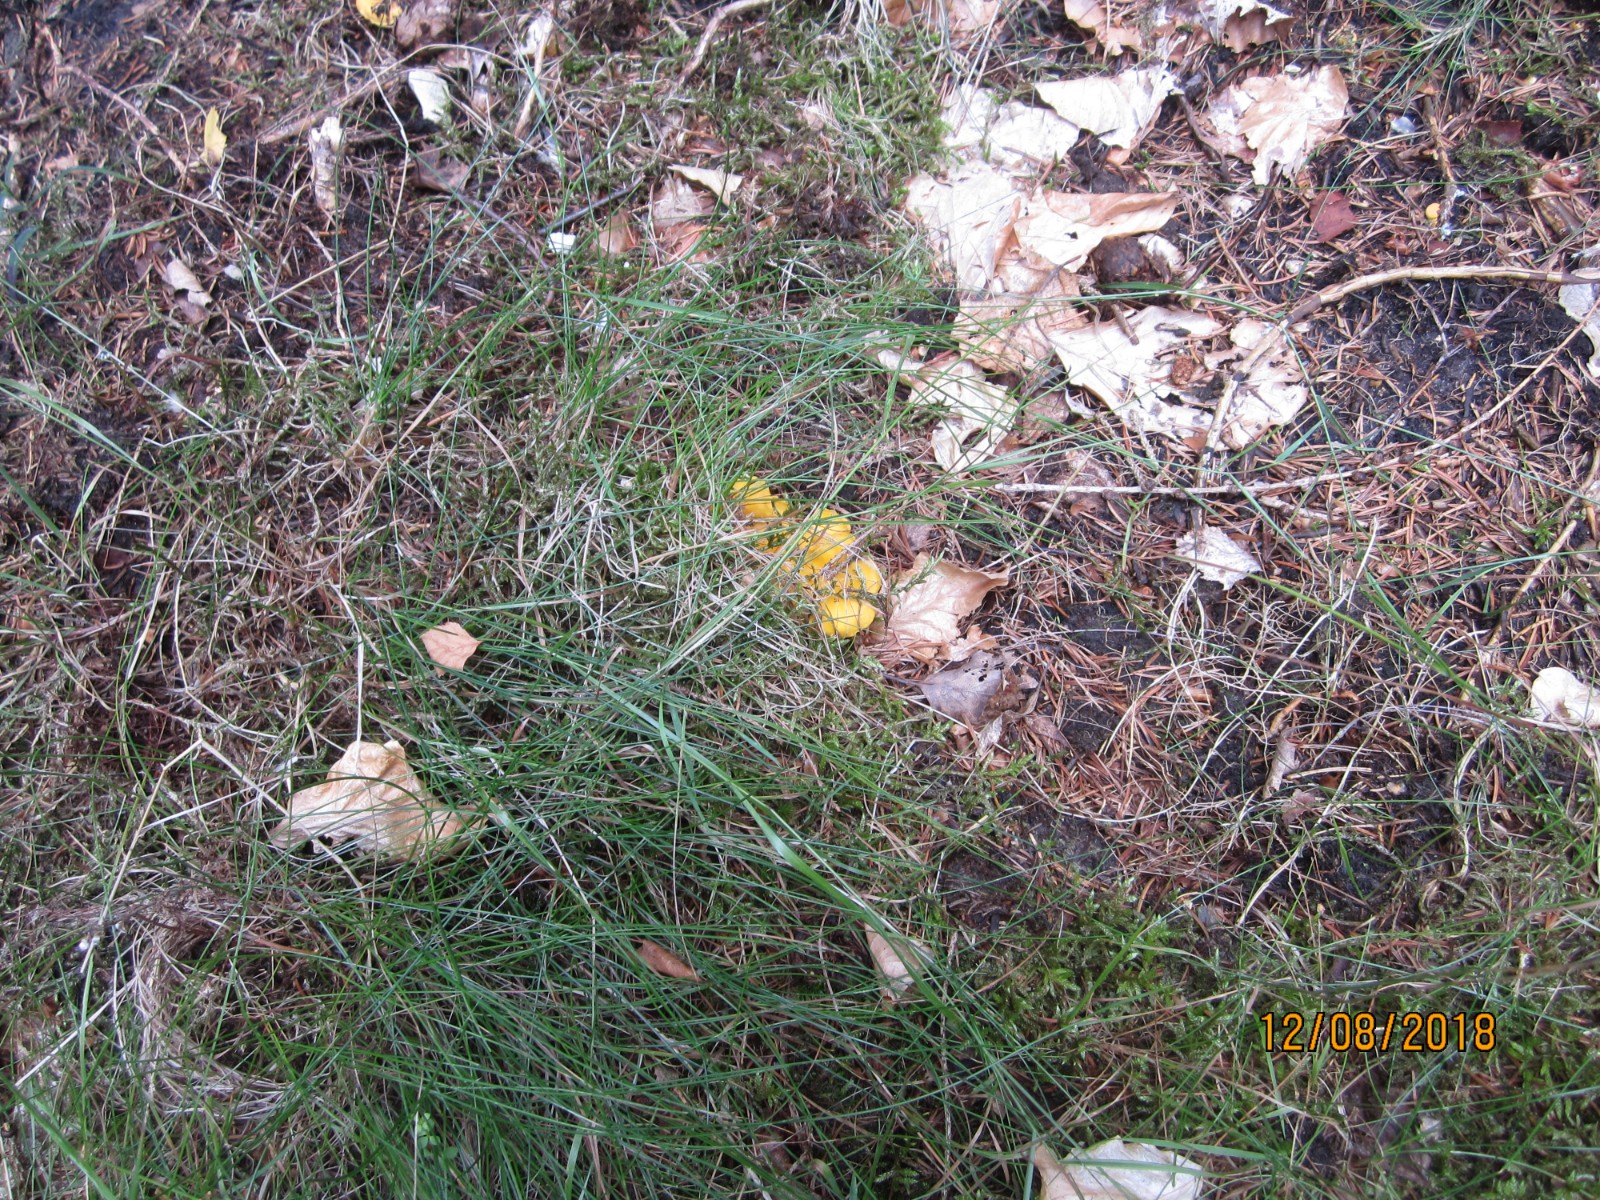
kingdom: Fungi
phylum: Basidiomycota
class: Agaricomycetes
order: Cantharellales
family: Hydnaceae
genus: Cantharellus
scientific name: Cantharellus cibarius
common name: almindelig kantarel
